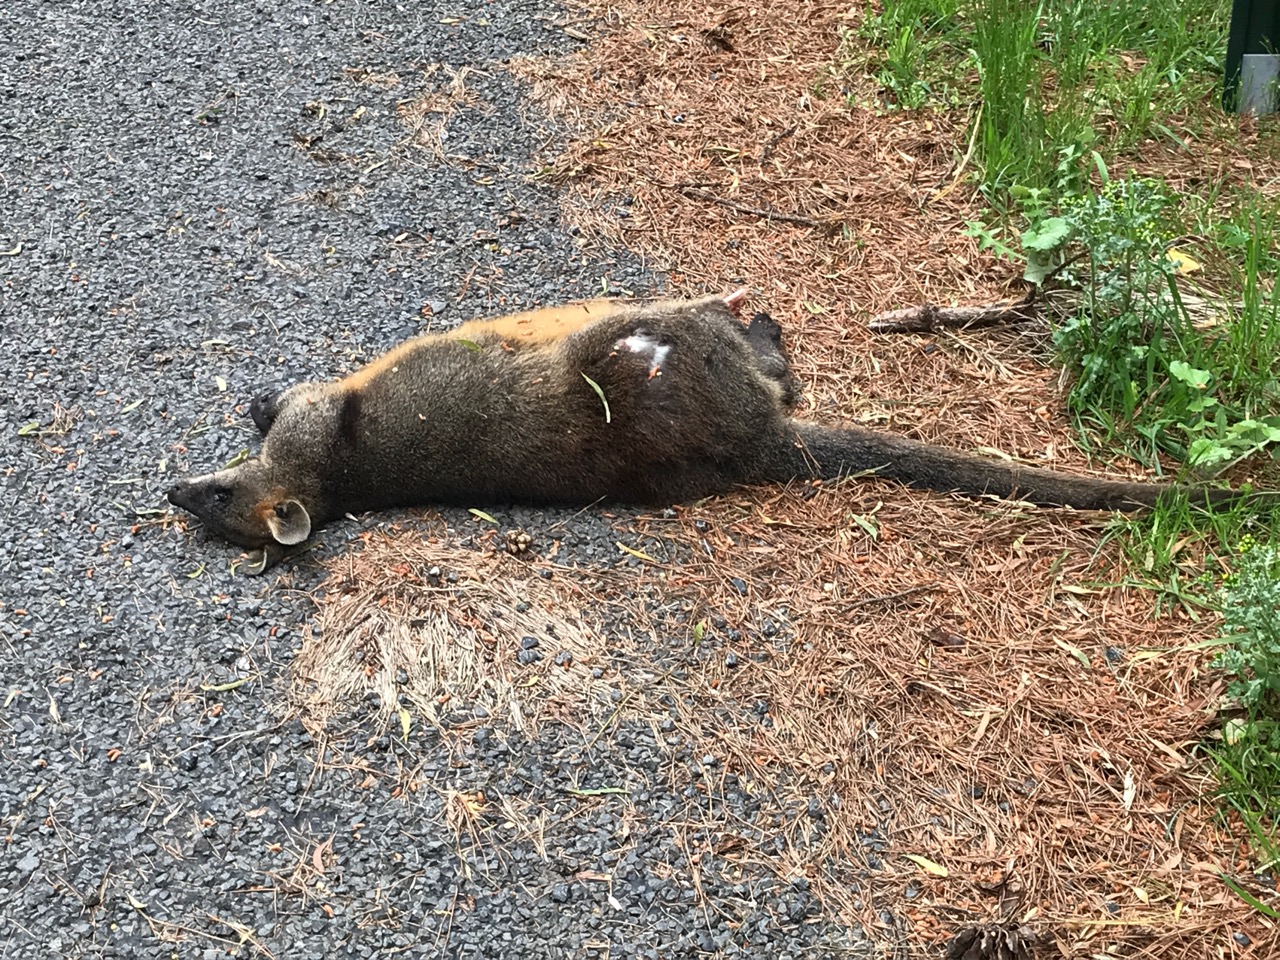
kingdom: Animalia
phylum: Chordata
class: Mammalia
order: Diprotodontia
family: Macropodidae
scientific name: Macropodidae
